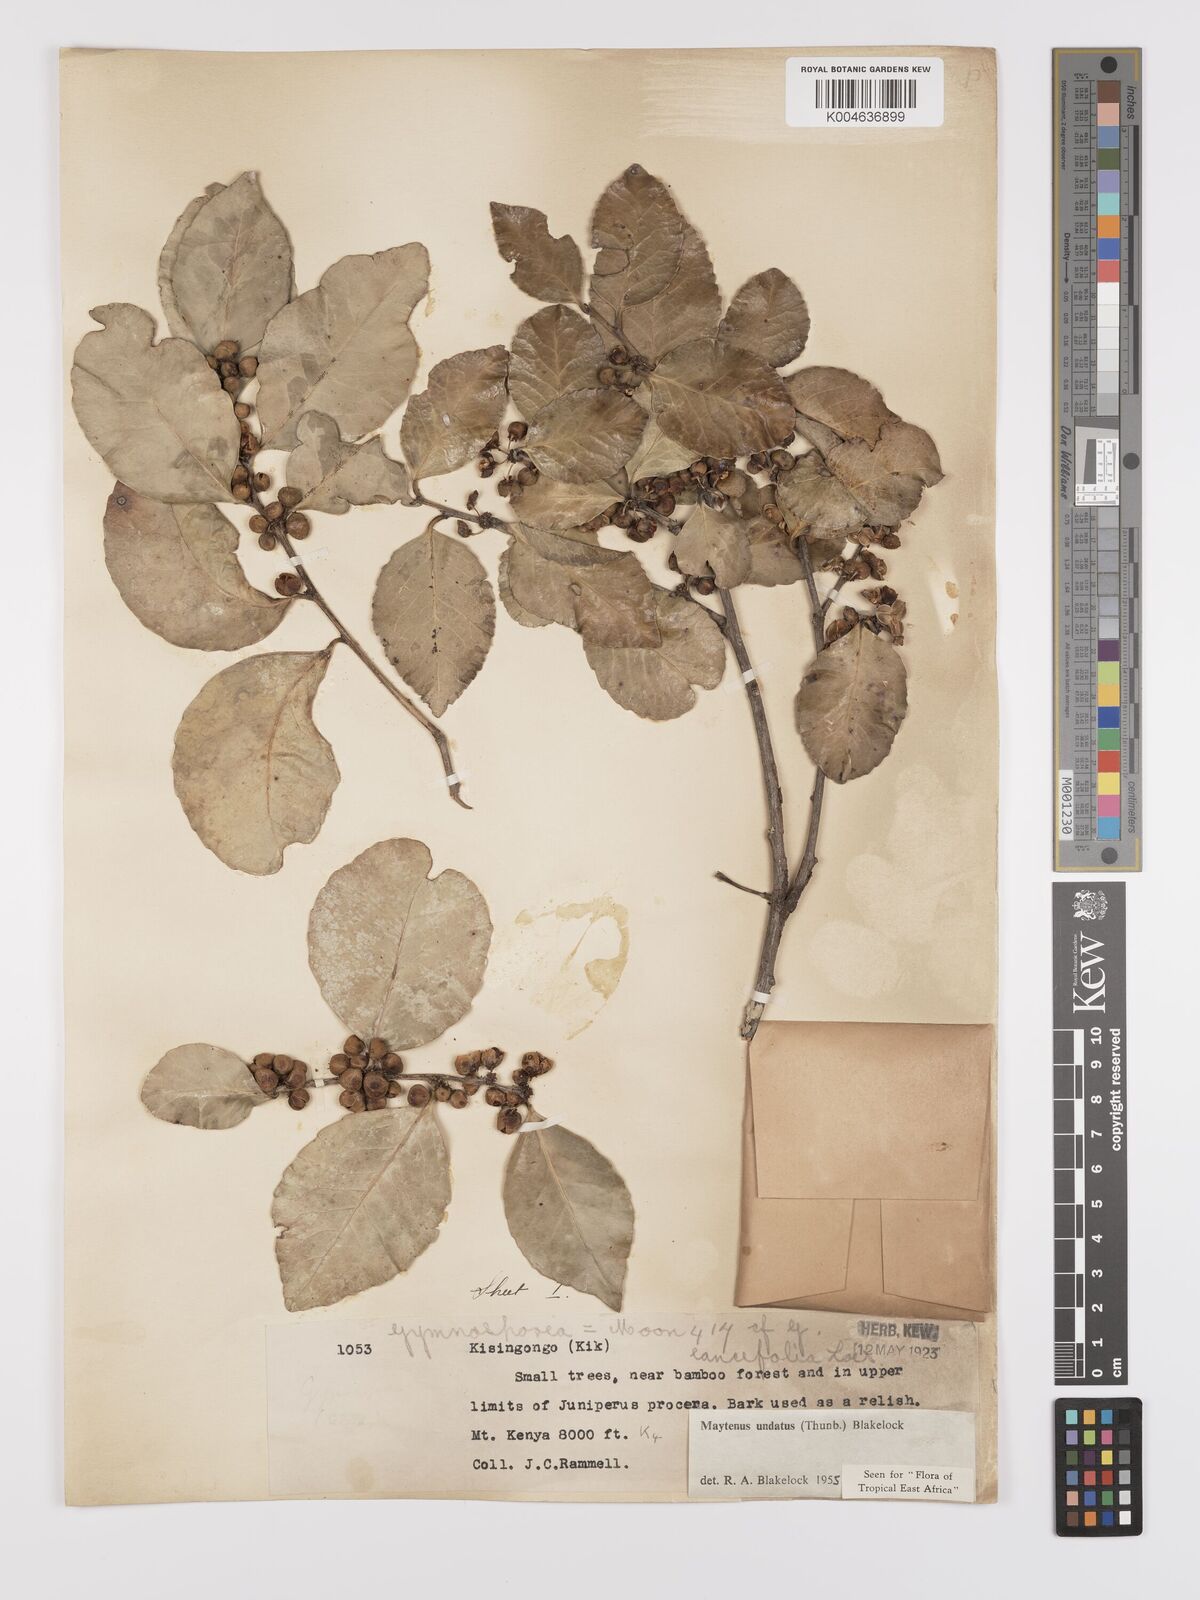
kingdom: Plantae
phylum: Tracheophyta
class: Magnoliopsida
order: Celastrales
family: Celastraceae
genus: Gymnosporia
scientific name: Gymnosporia undata
